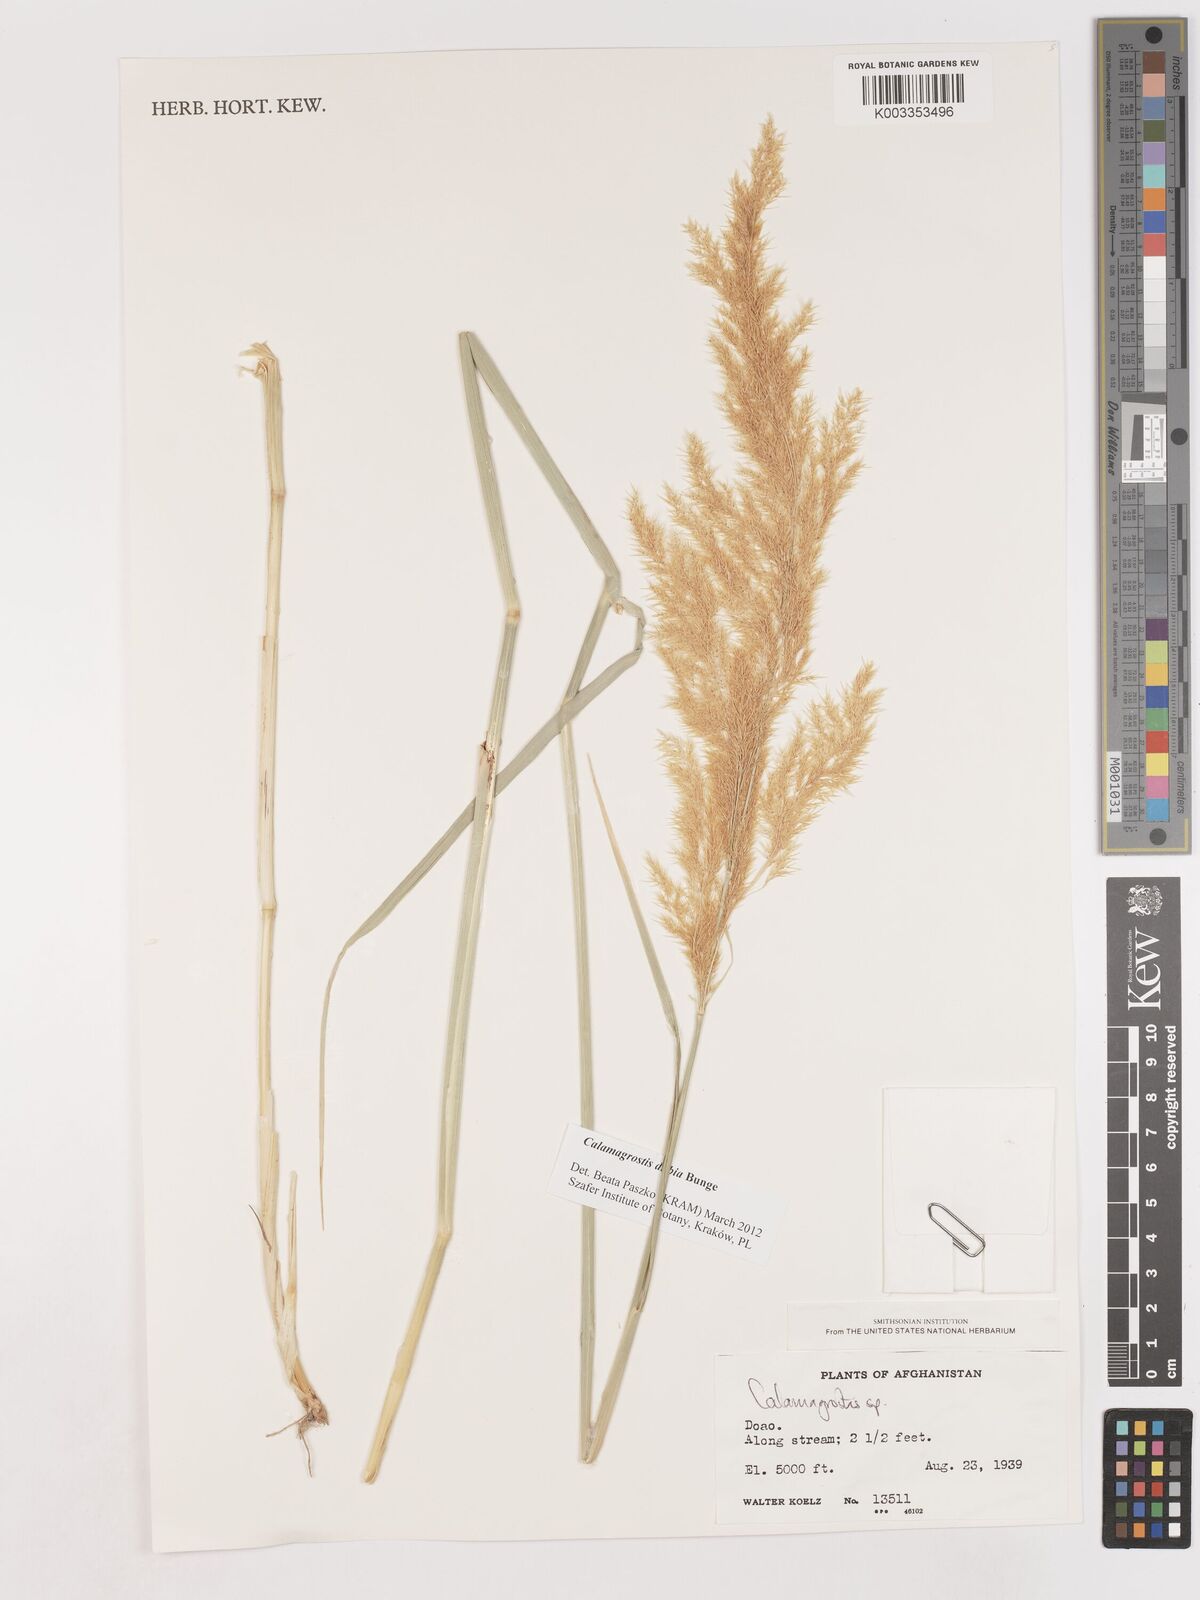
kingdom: Plantae
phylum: Tracheophyta
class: Liliopsida
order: Poales
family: Poaceae
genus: Calamagrostis
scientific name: Calamagrostis
